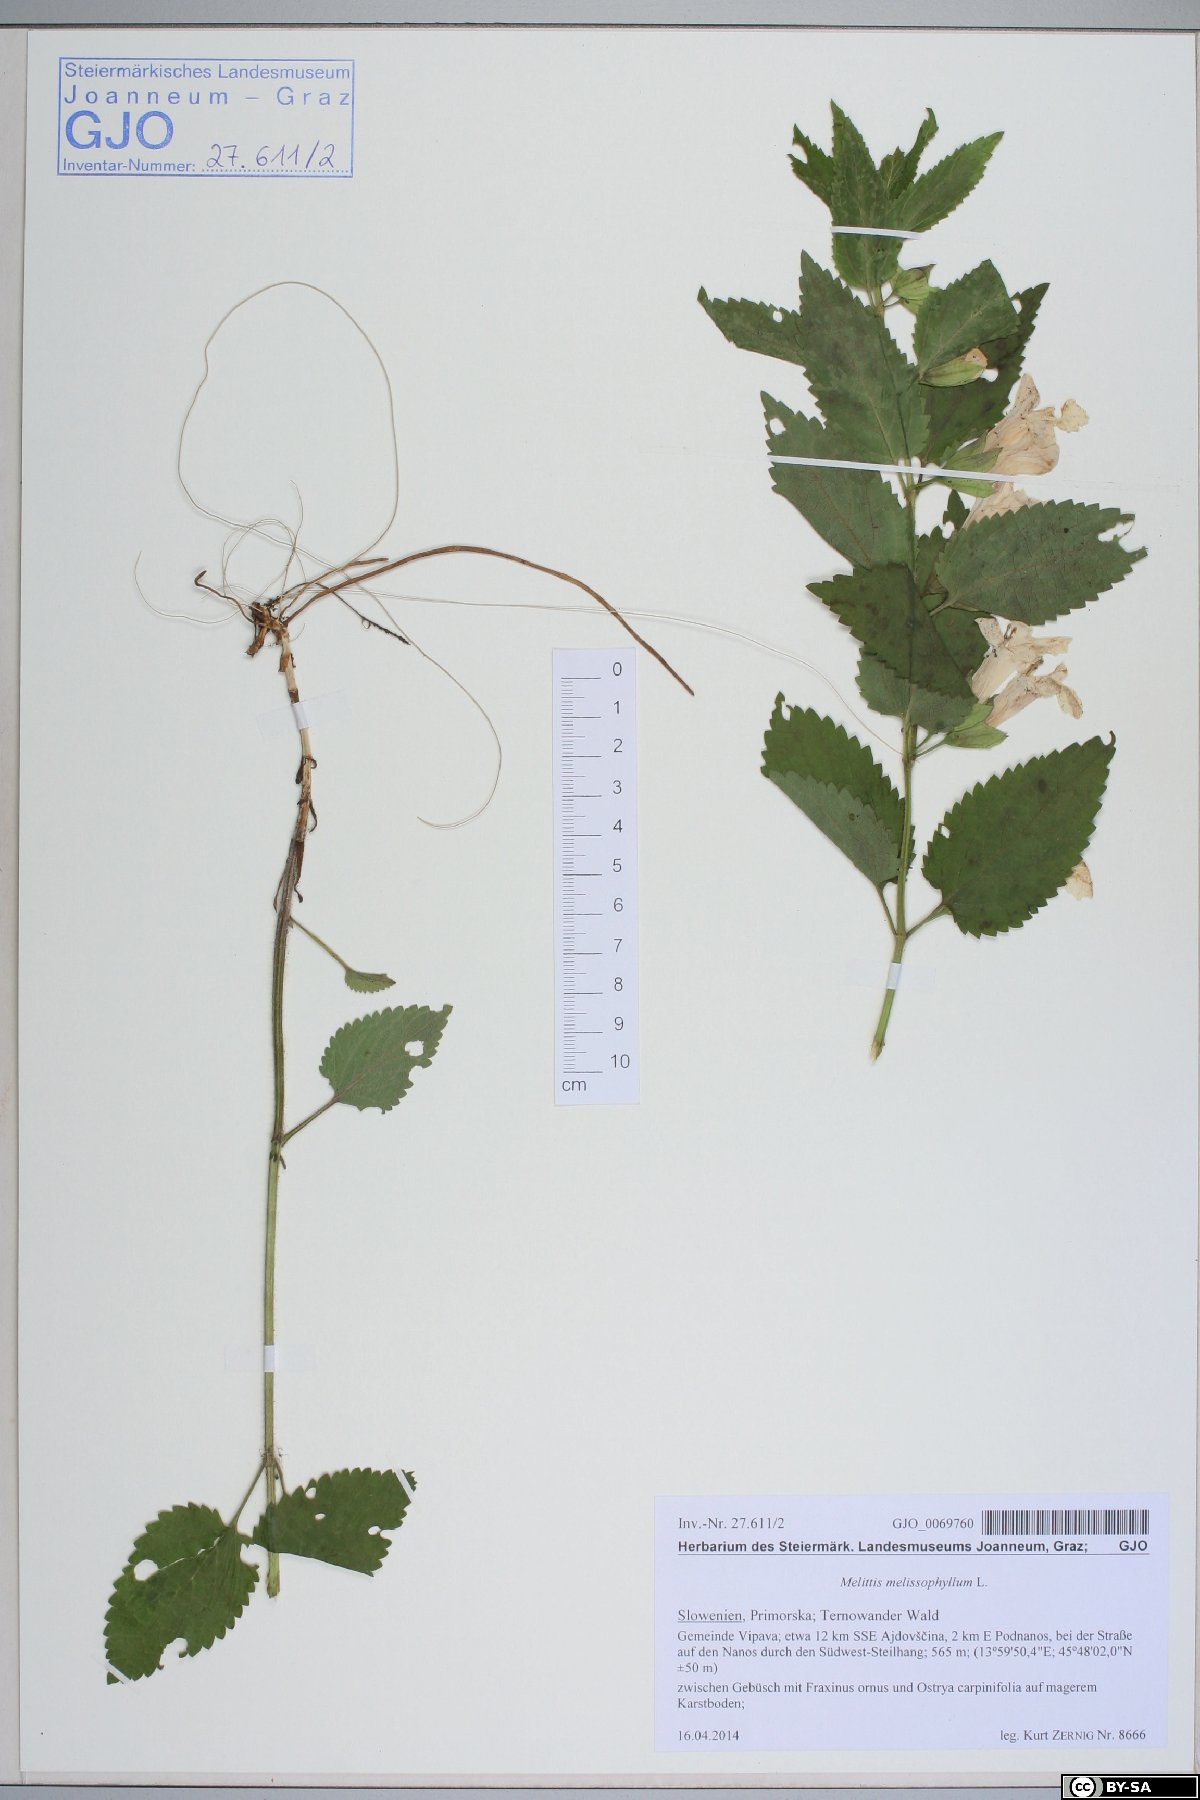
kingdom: Plantae
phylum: Tracheophyta
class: Magnoliopsida
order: Lamiales
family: Lamiaceae
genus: Melittis
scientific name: Melittis melissophyllum
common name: Bastard balm
